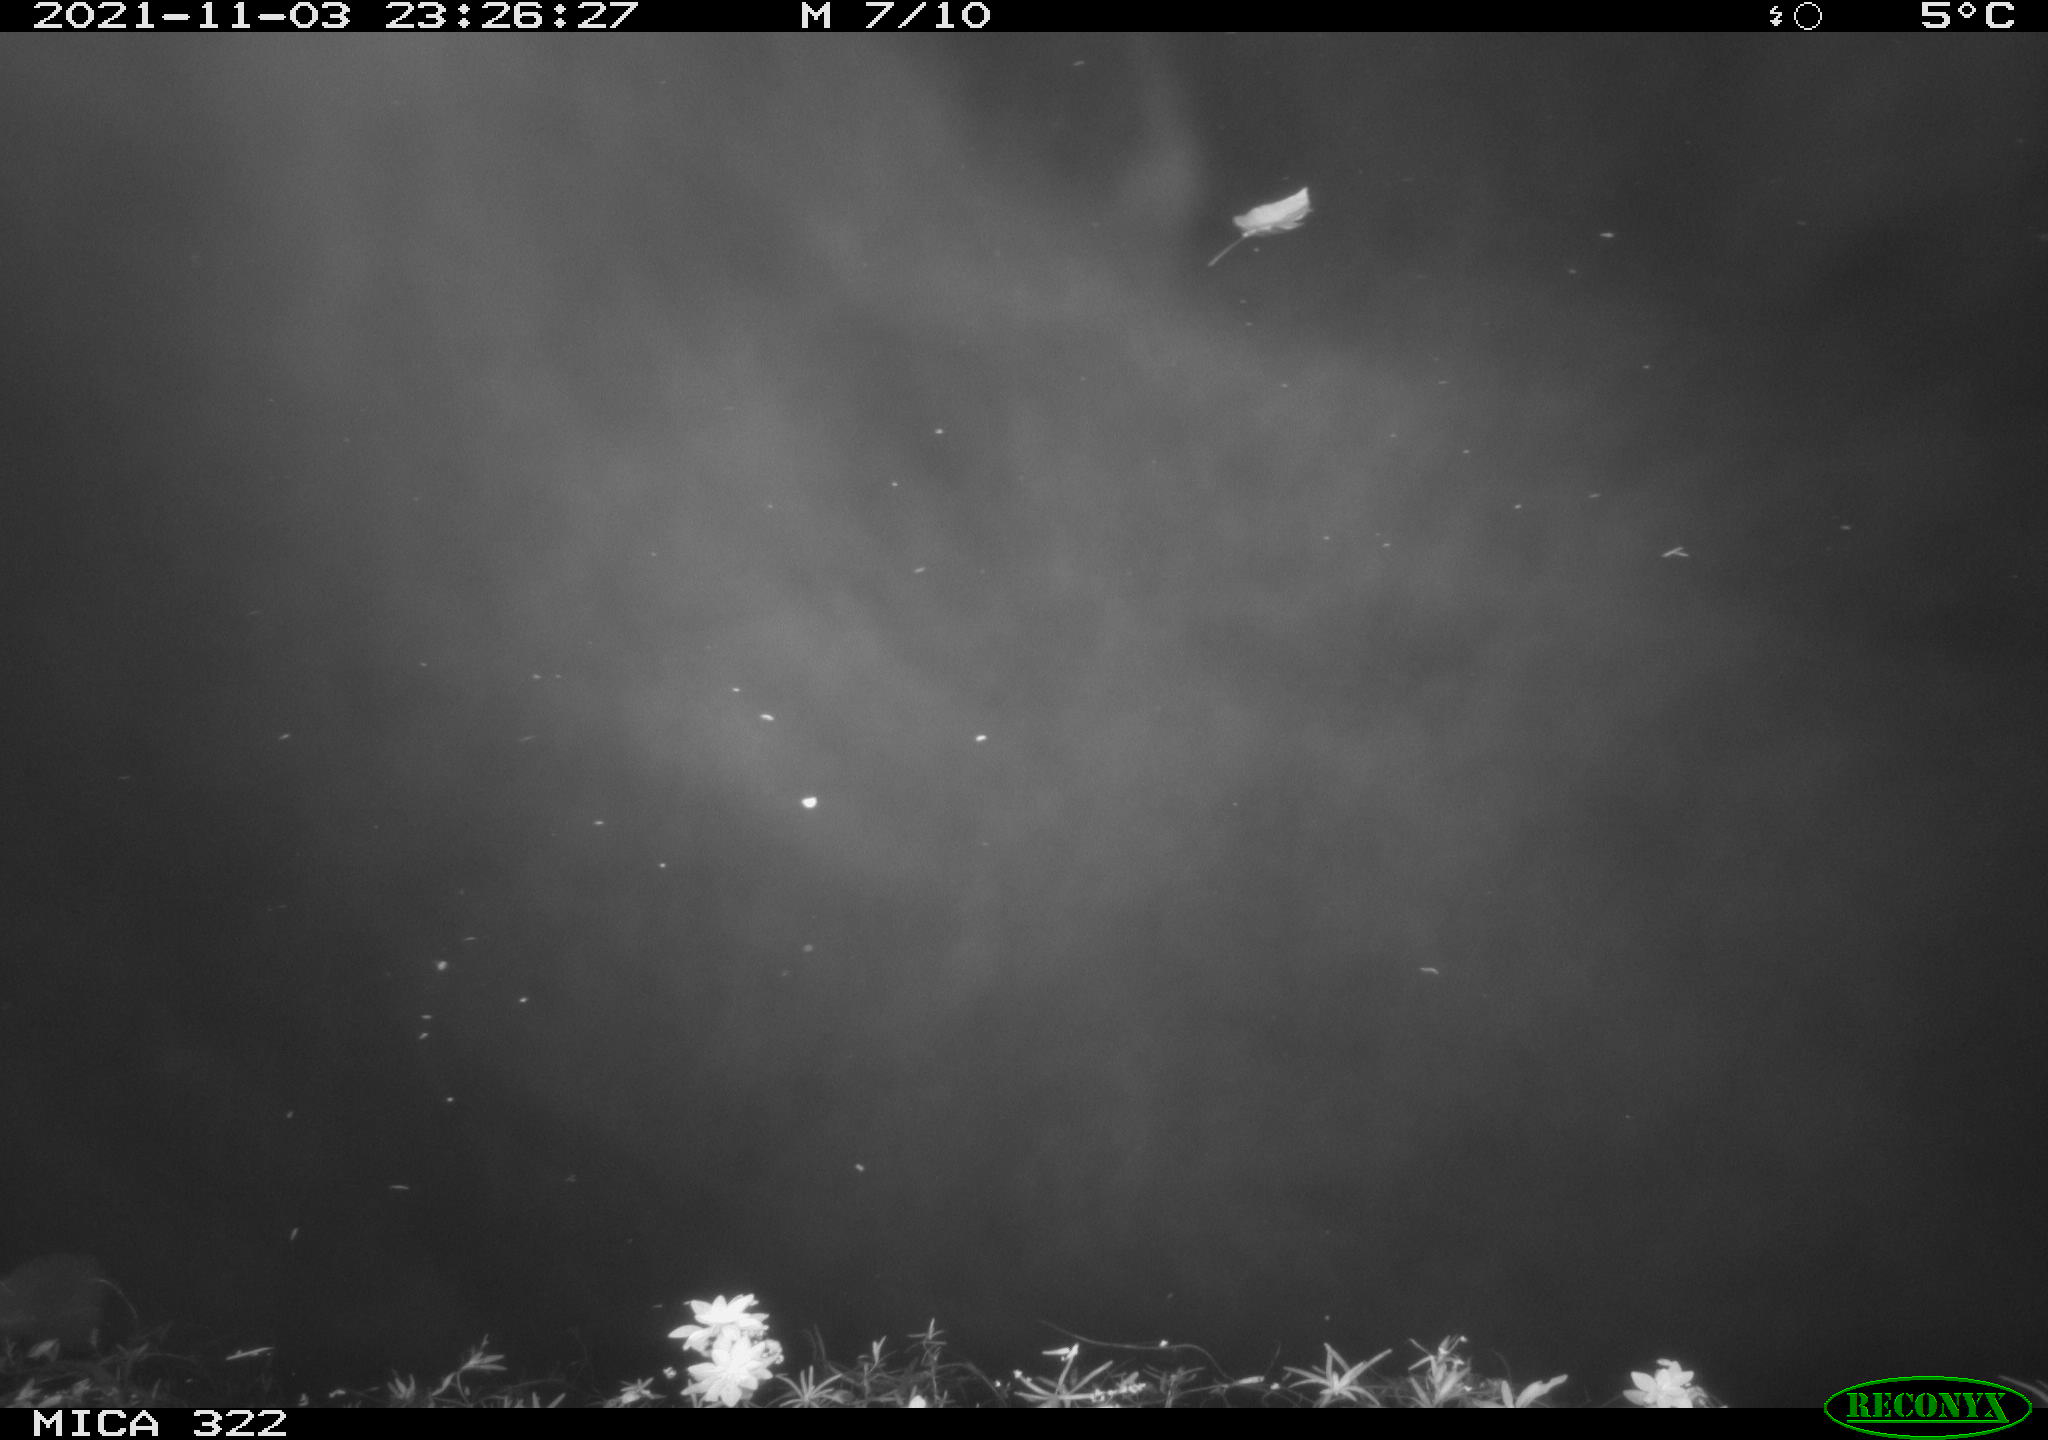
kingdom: Animalia
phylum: Chordata
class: Mammalia
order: Rodentia
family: Muridae
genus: Rattus
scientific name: Rattus norvegicus
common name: Brown rat
